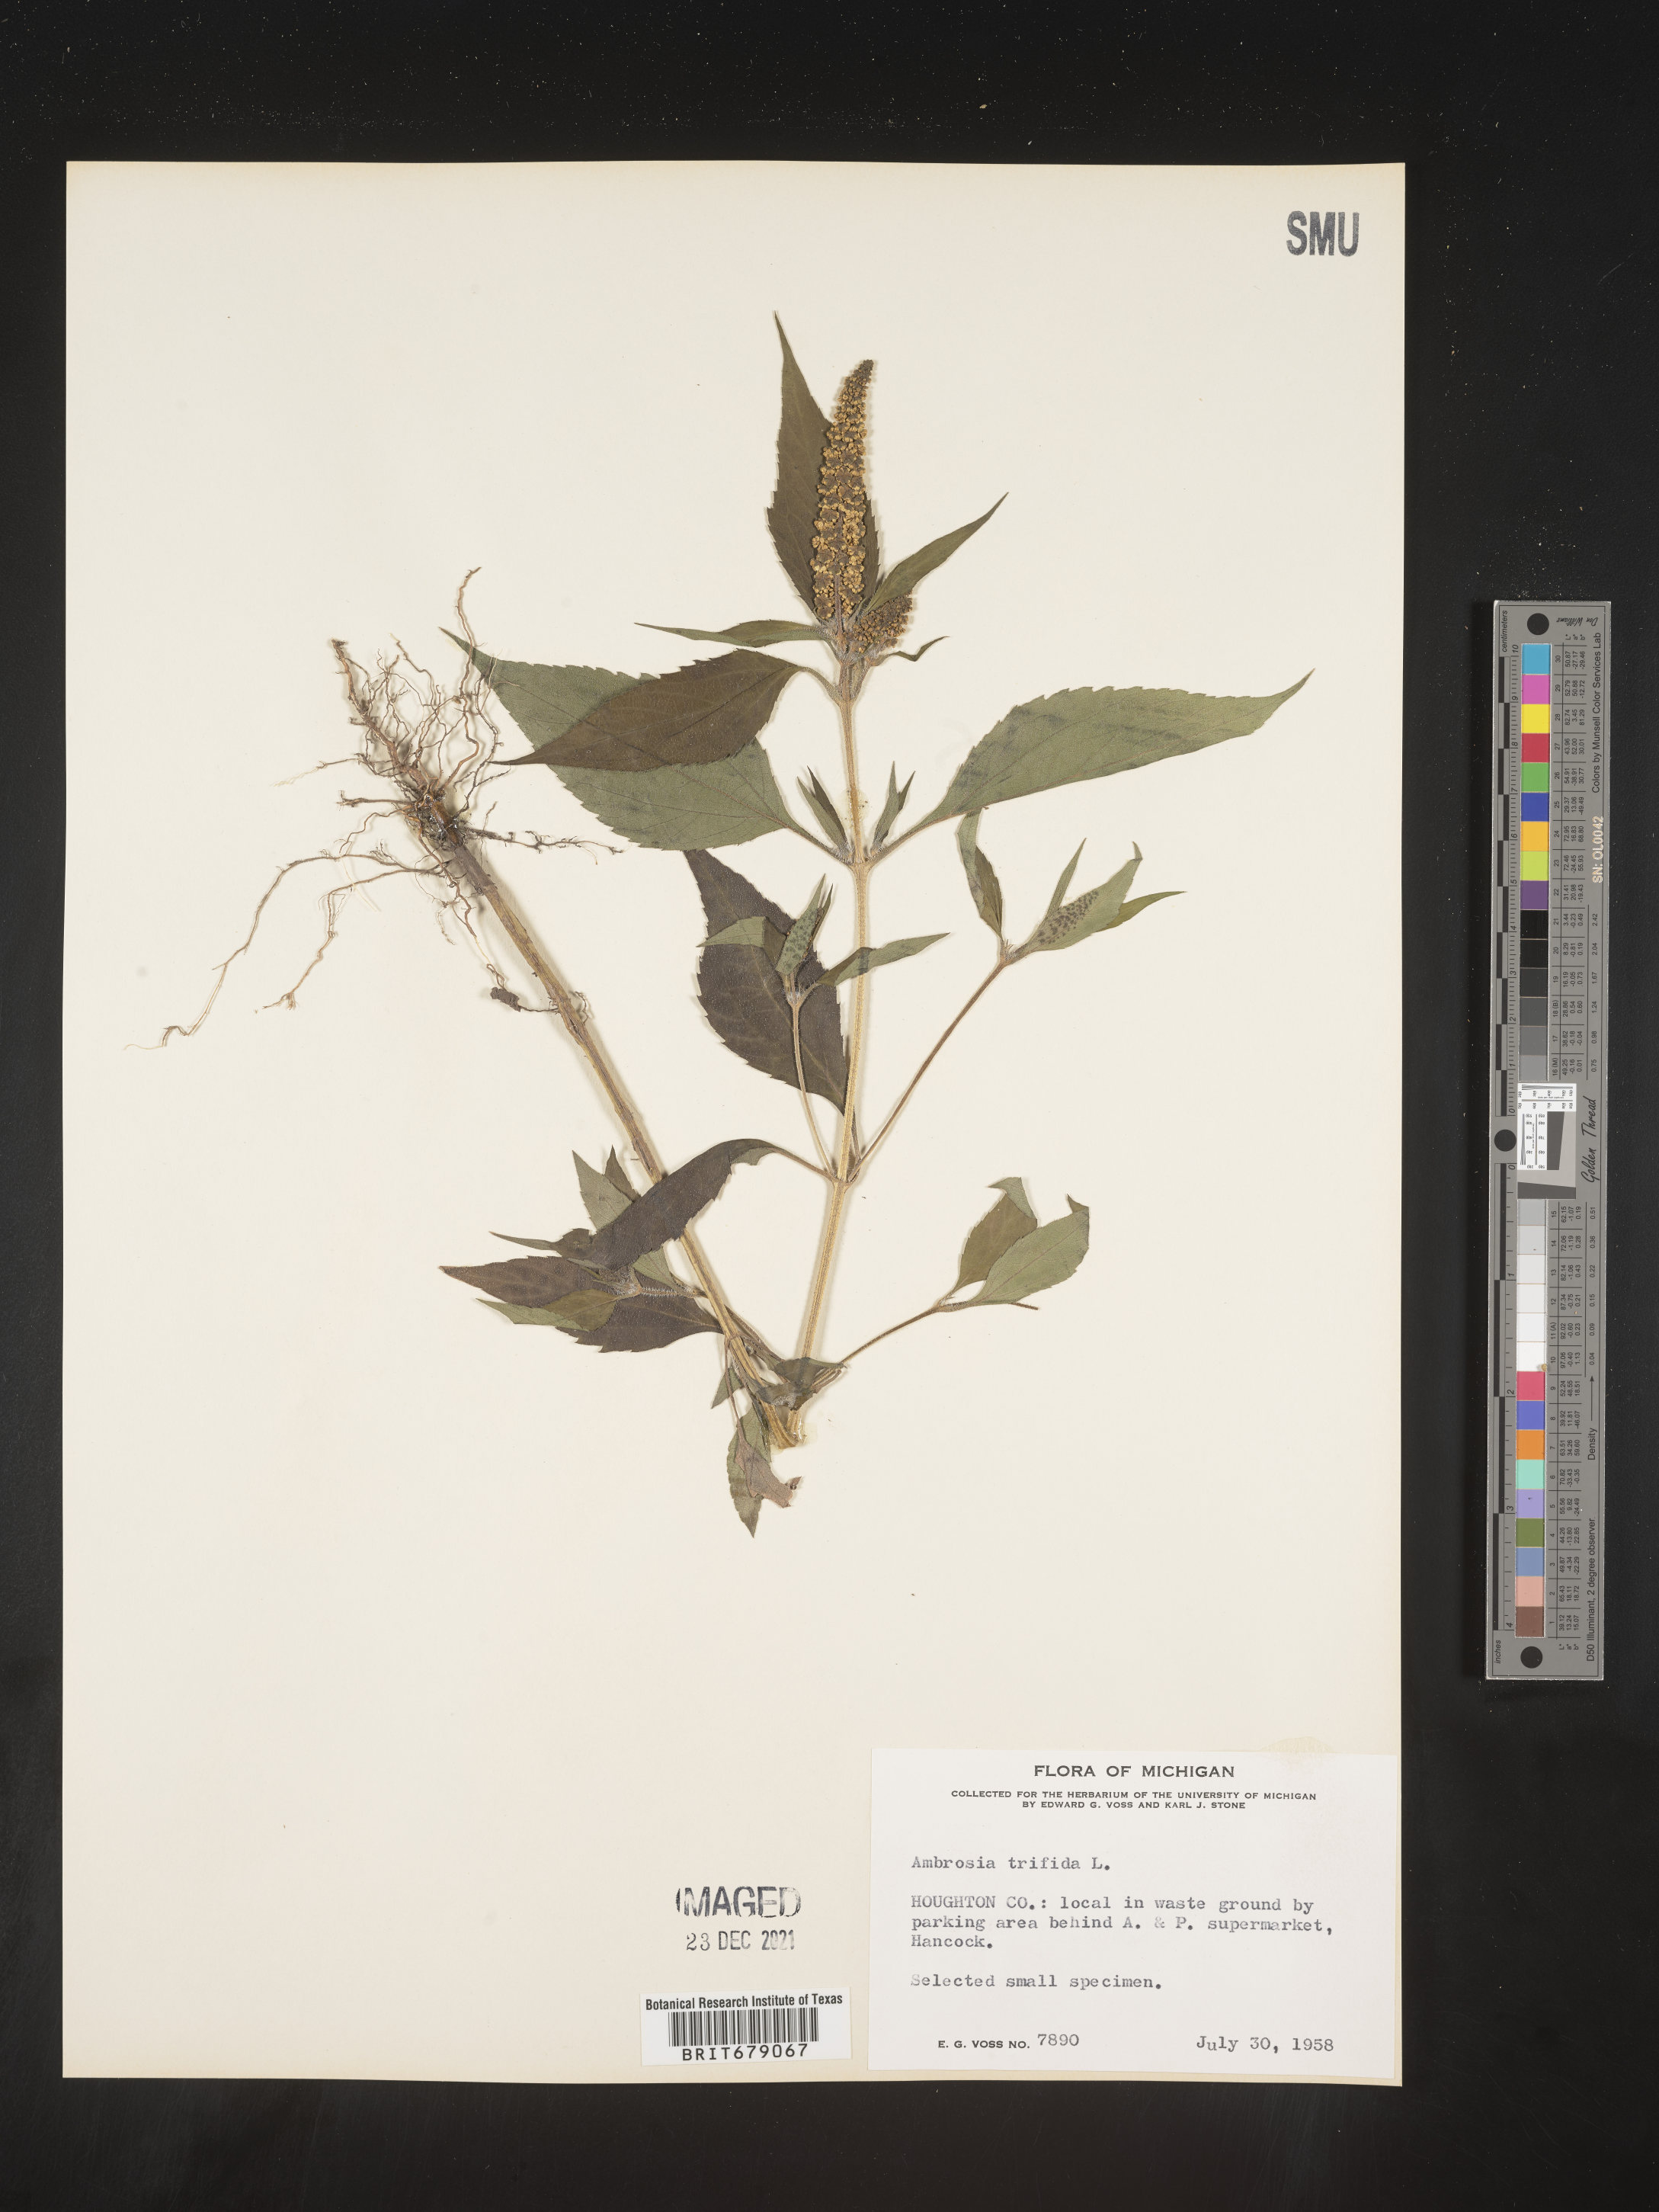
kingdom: Plantae
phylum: Tracheophyta
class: Magnoliopsida
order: Asterales
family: Asteraceae
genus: Ambrosia
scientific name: Ambrosia trifida
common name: Giant ragweed
